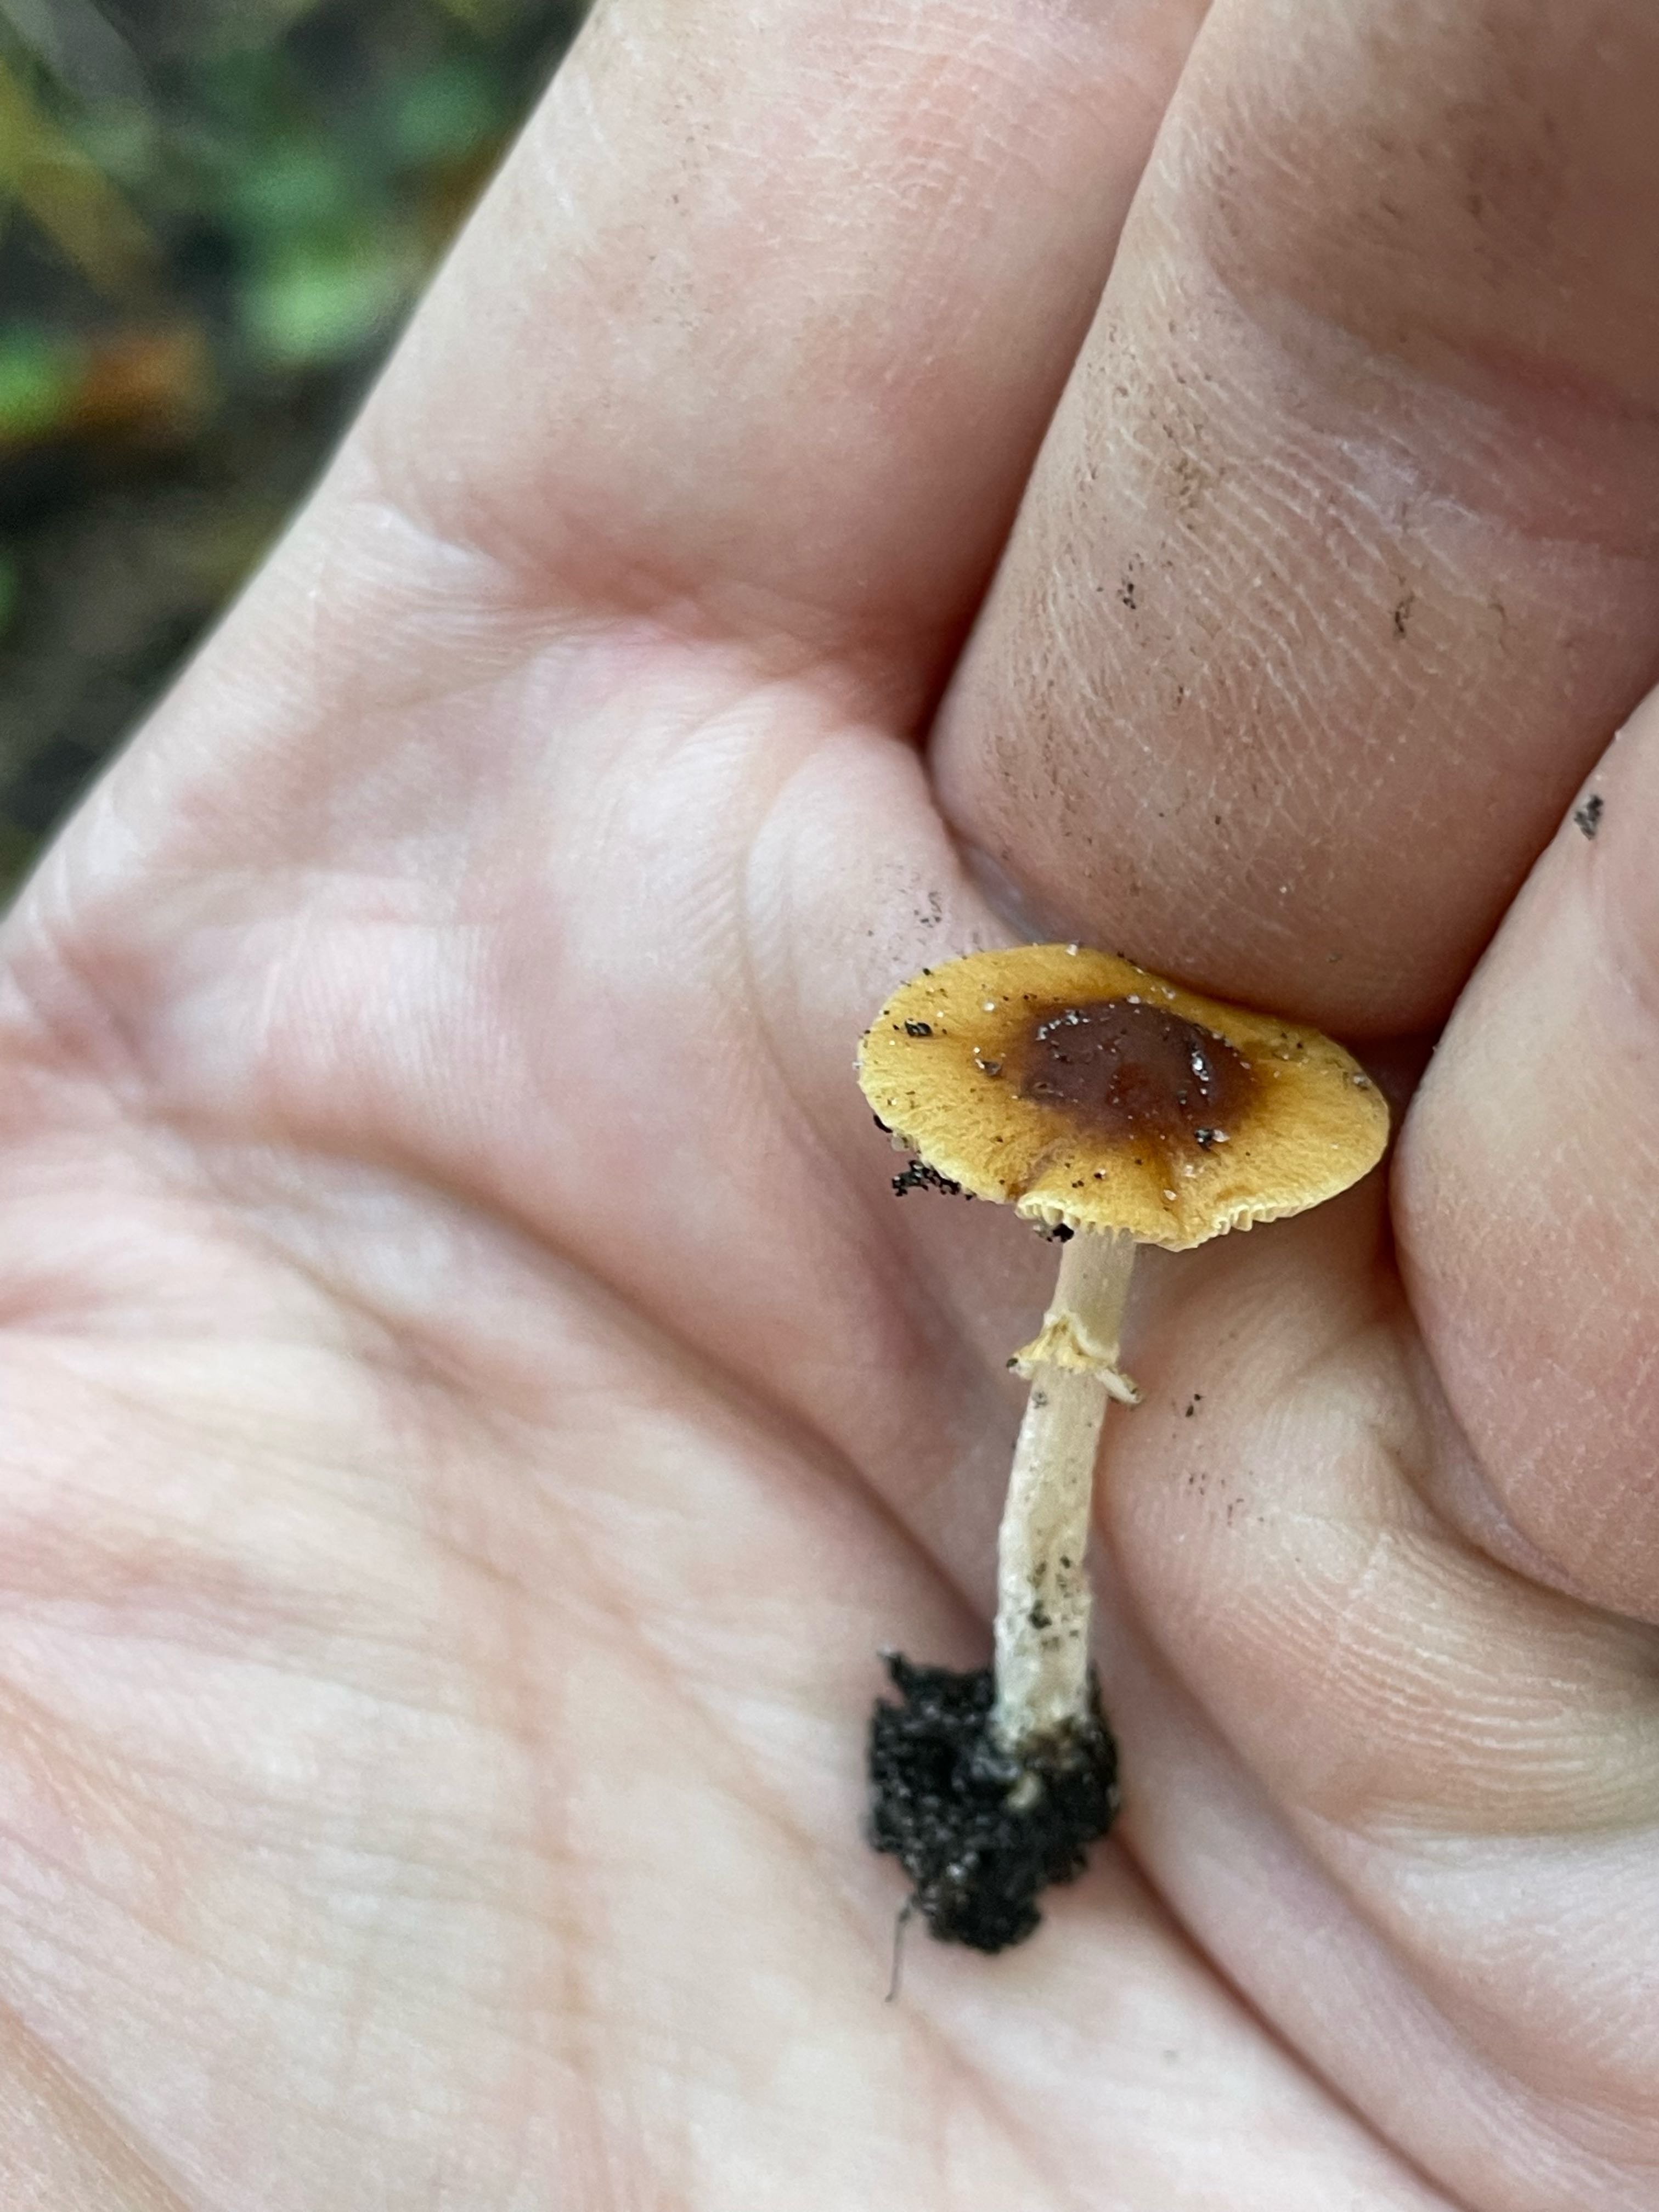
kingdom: Fungi
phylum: Basidiomycota
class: Agaricomycetes
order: Agaricales
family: Bolbitiaceae
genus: Conocybe
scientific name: Conocybe arrhenii
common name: ring-dansehat
